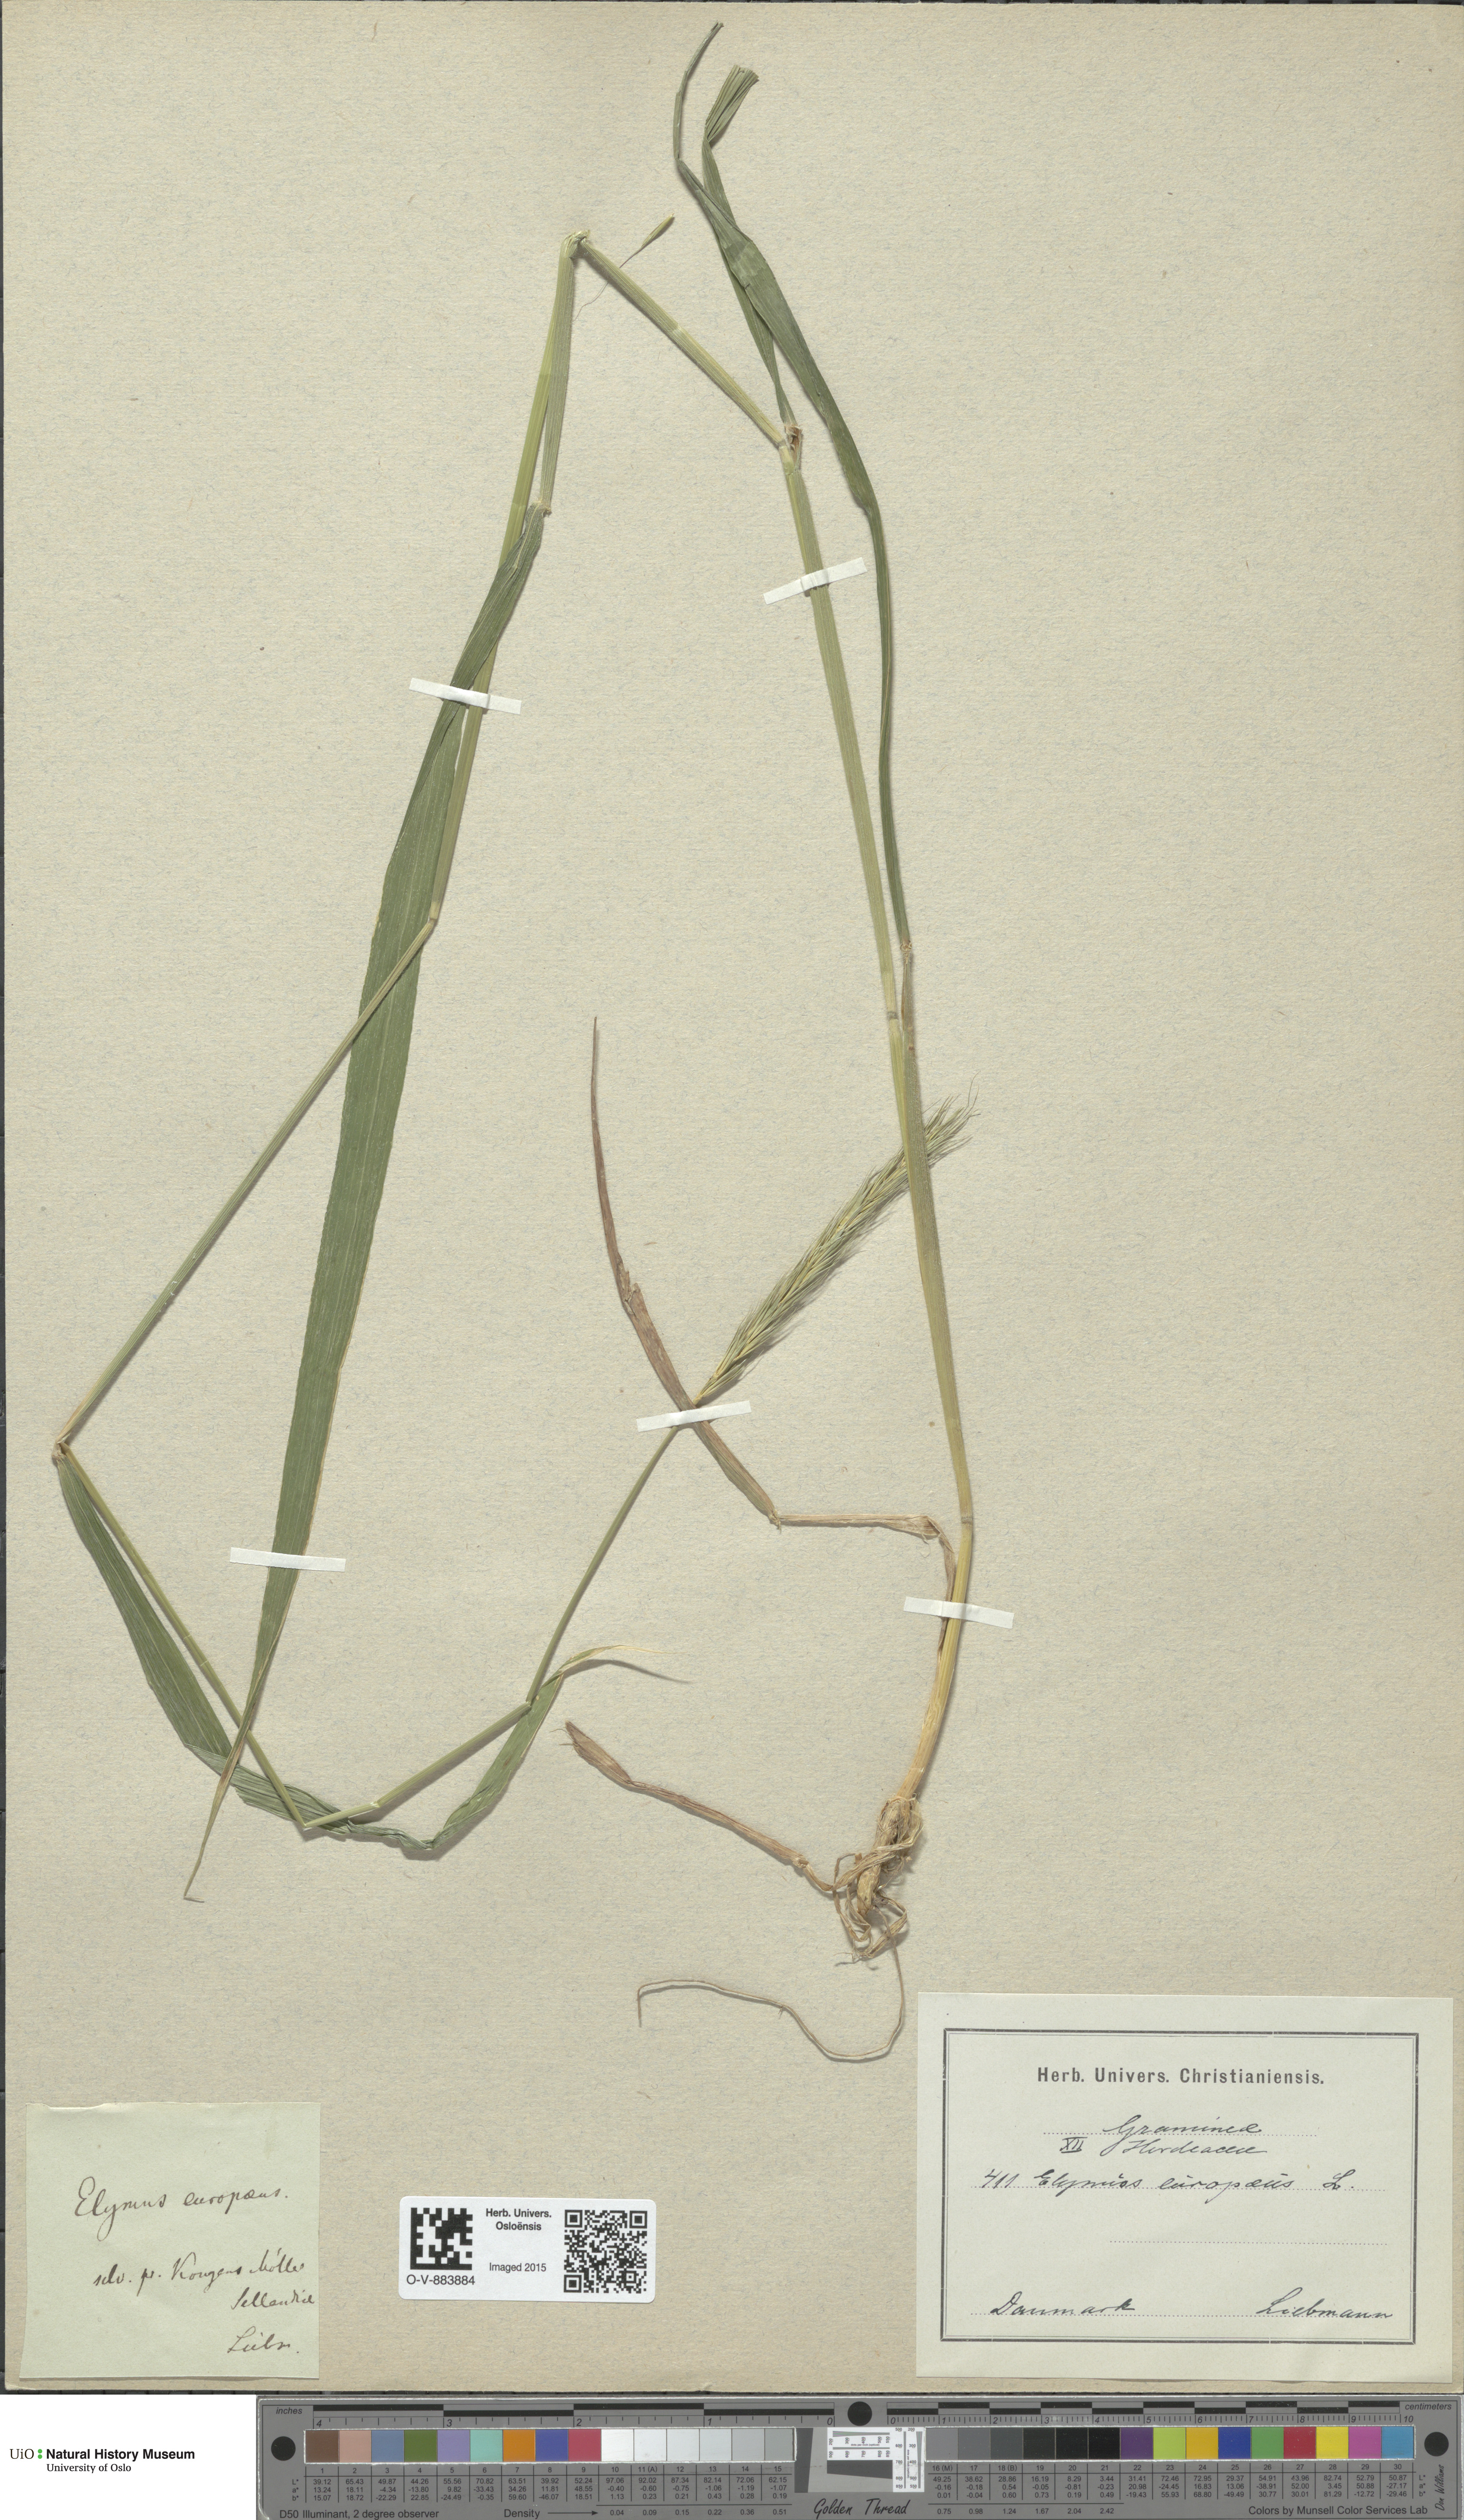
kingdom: Plantae
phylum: Tracheophyta
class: Liliopsida
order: Poales
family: Poaceae
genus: Hordelymus
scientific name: Hordelymus europaeus
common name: Wood-barley
